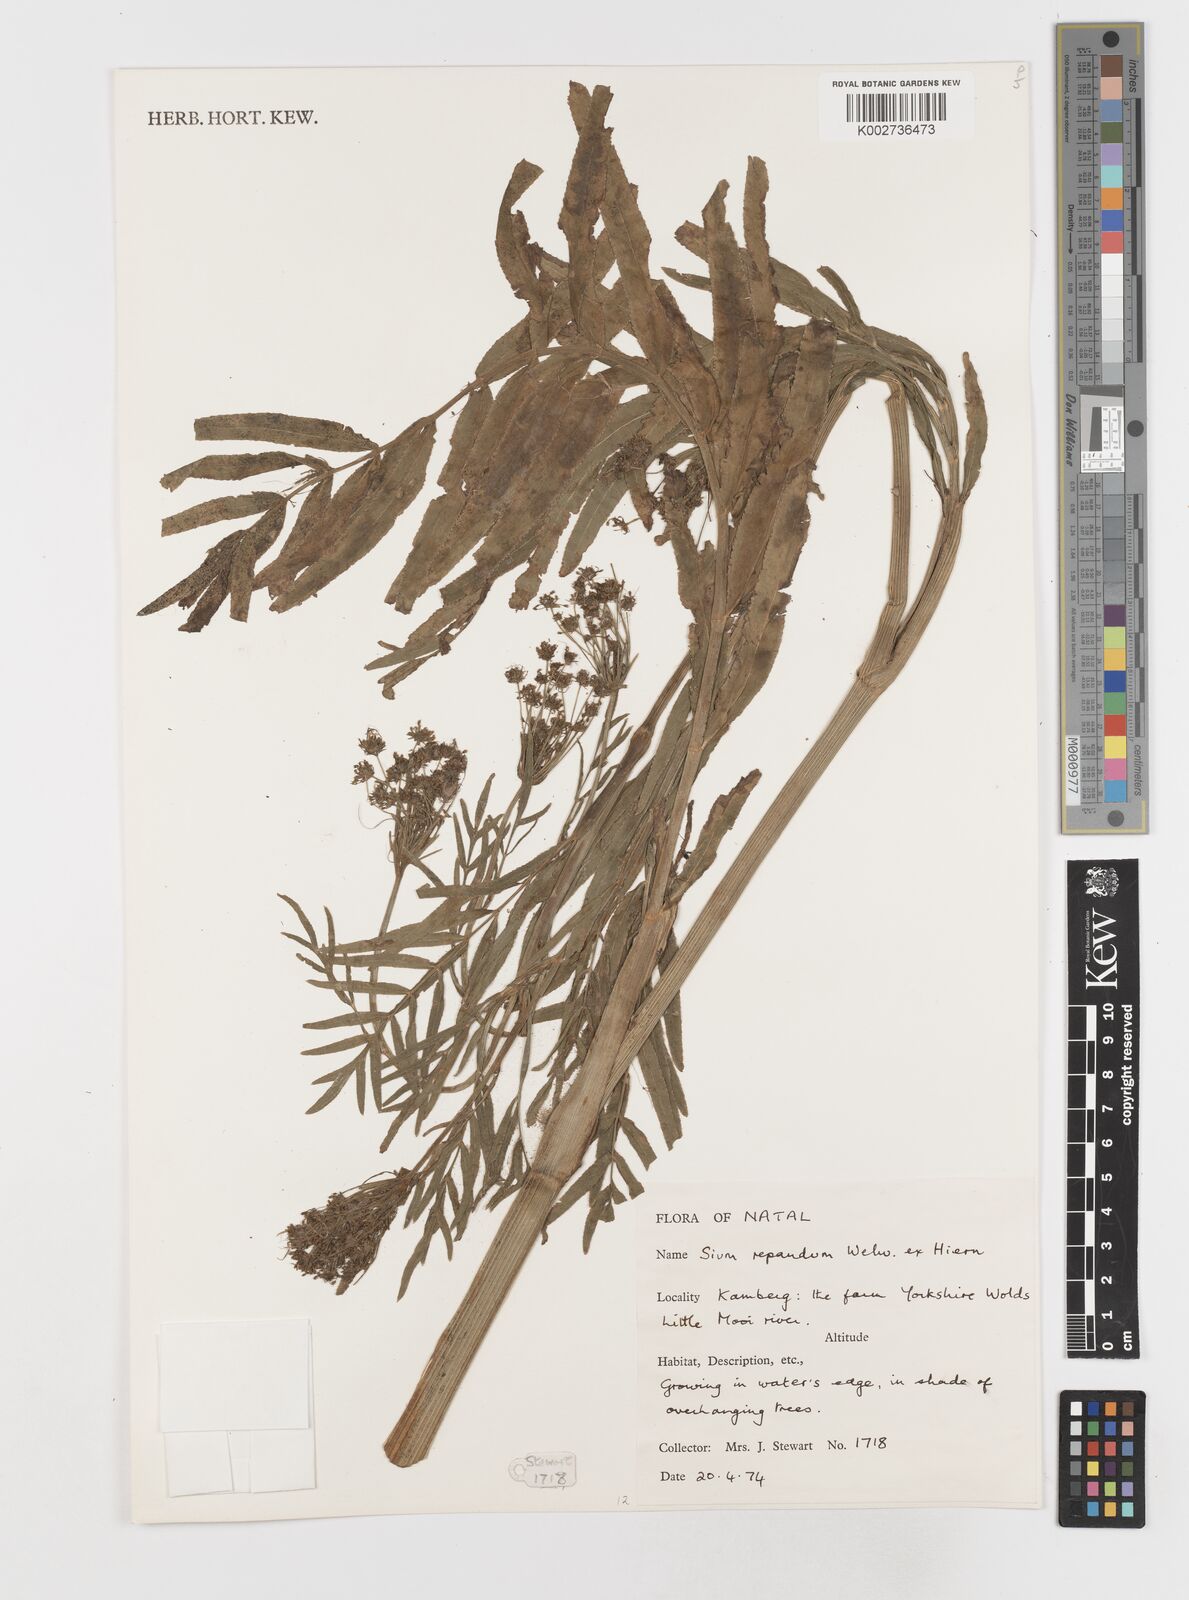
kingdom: Plantae
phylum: Tracheophyta
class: Magnoliopsida
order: Apiales
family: Apiaceae
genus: Berula
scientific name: Berula repanda
